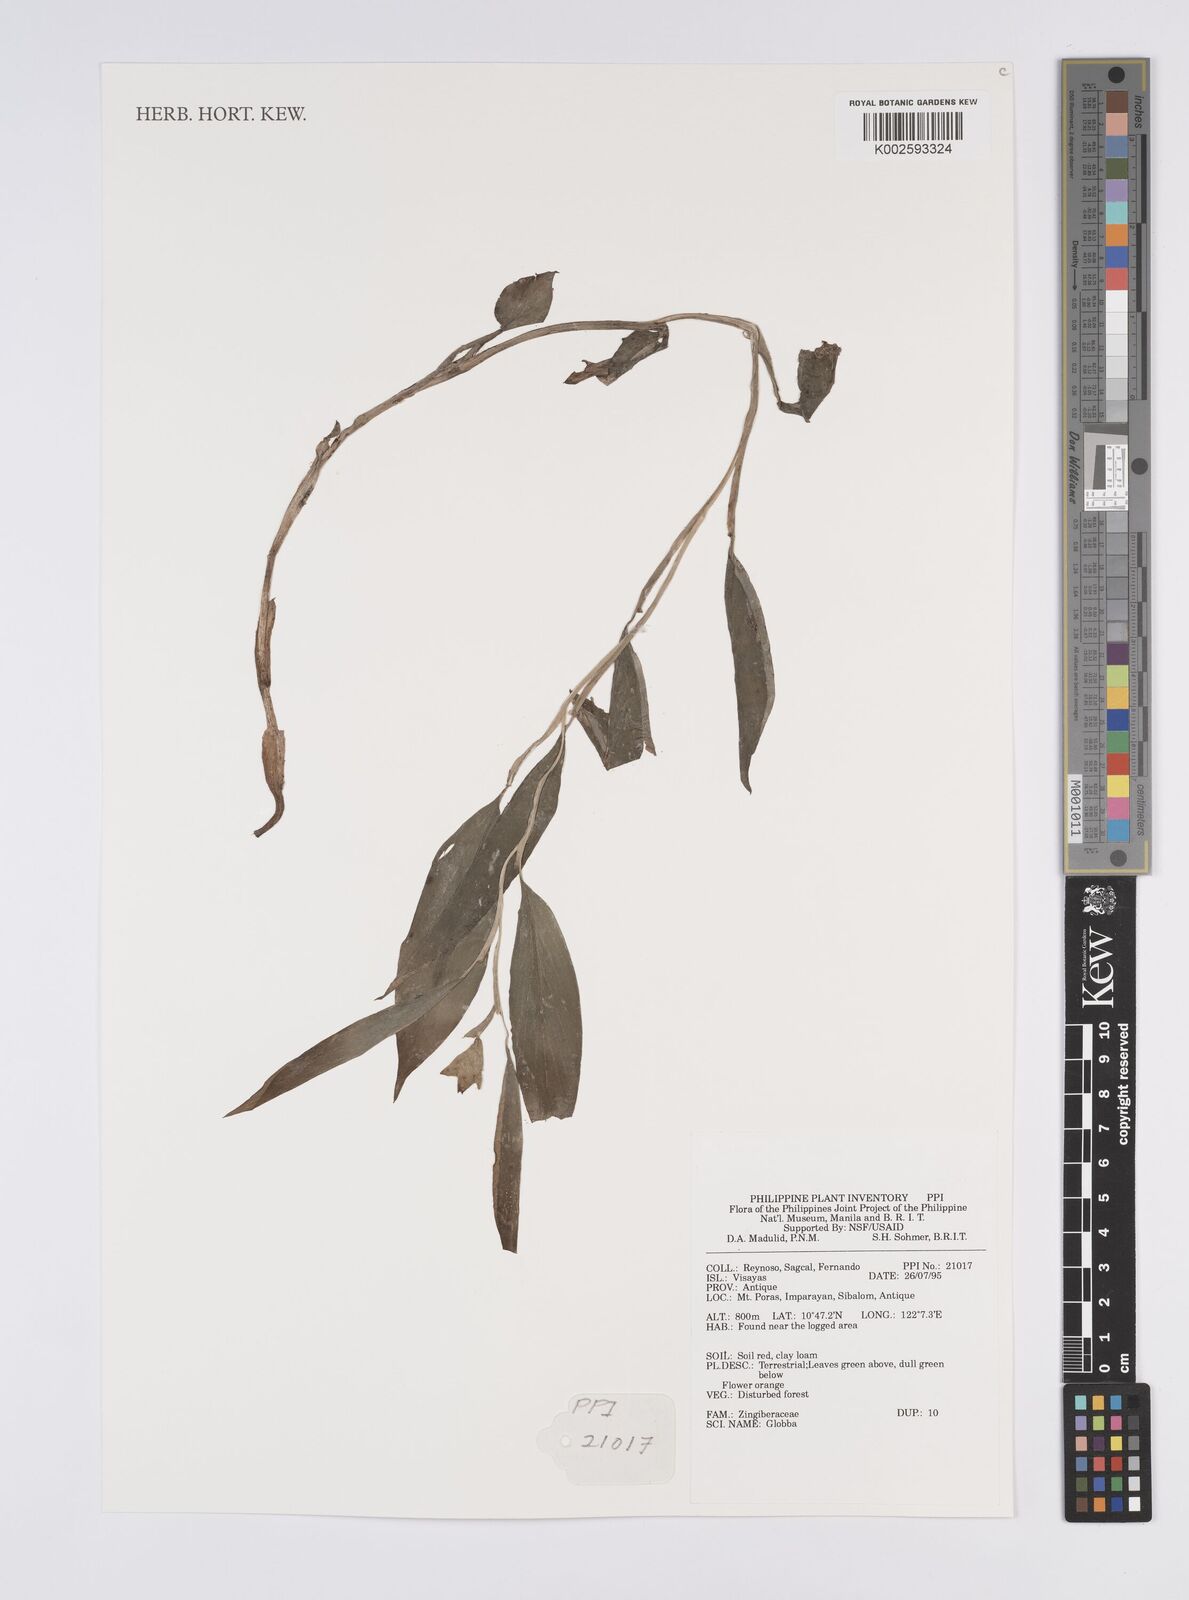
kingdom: Plantae
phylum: Tracheophyta
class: Liliopsida
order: Zingiberales
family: Zingiberaceae
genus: Globba
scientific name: Globba
